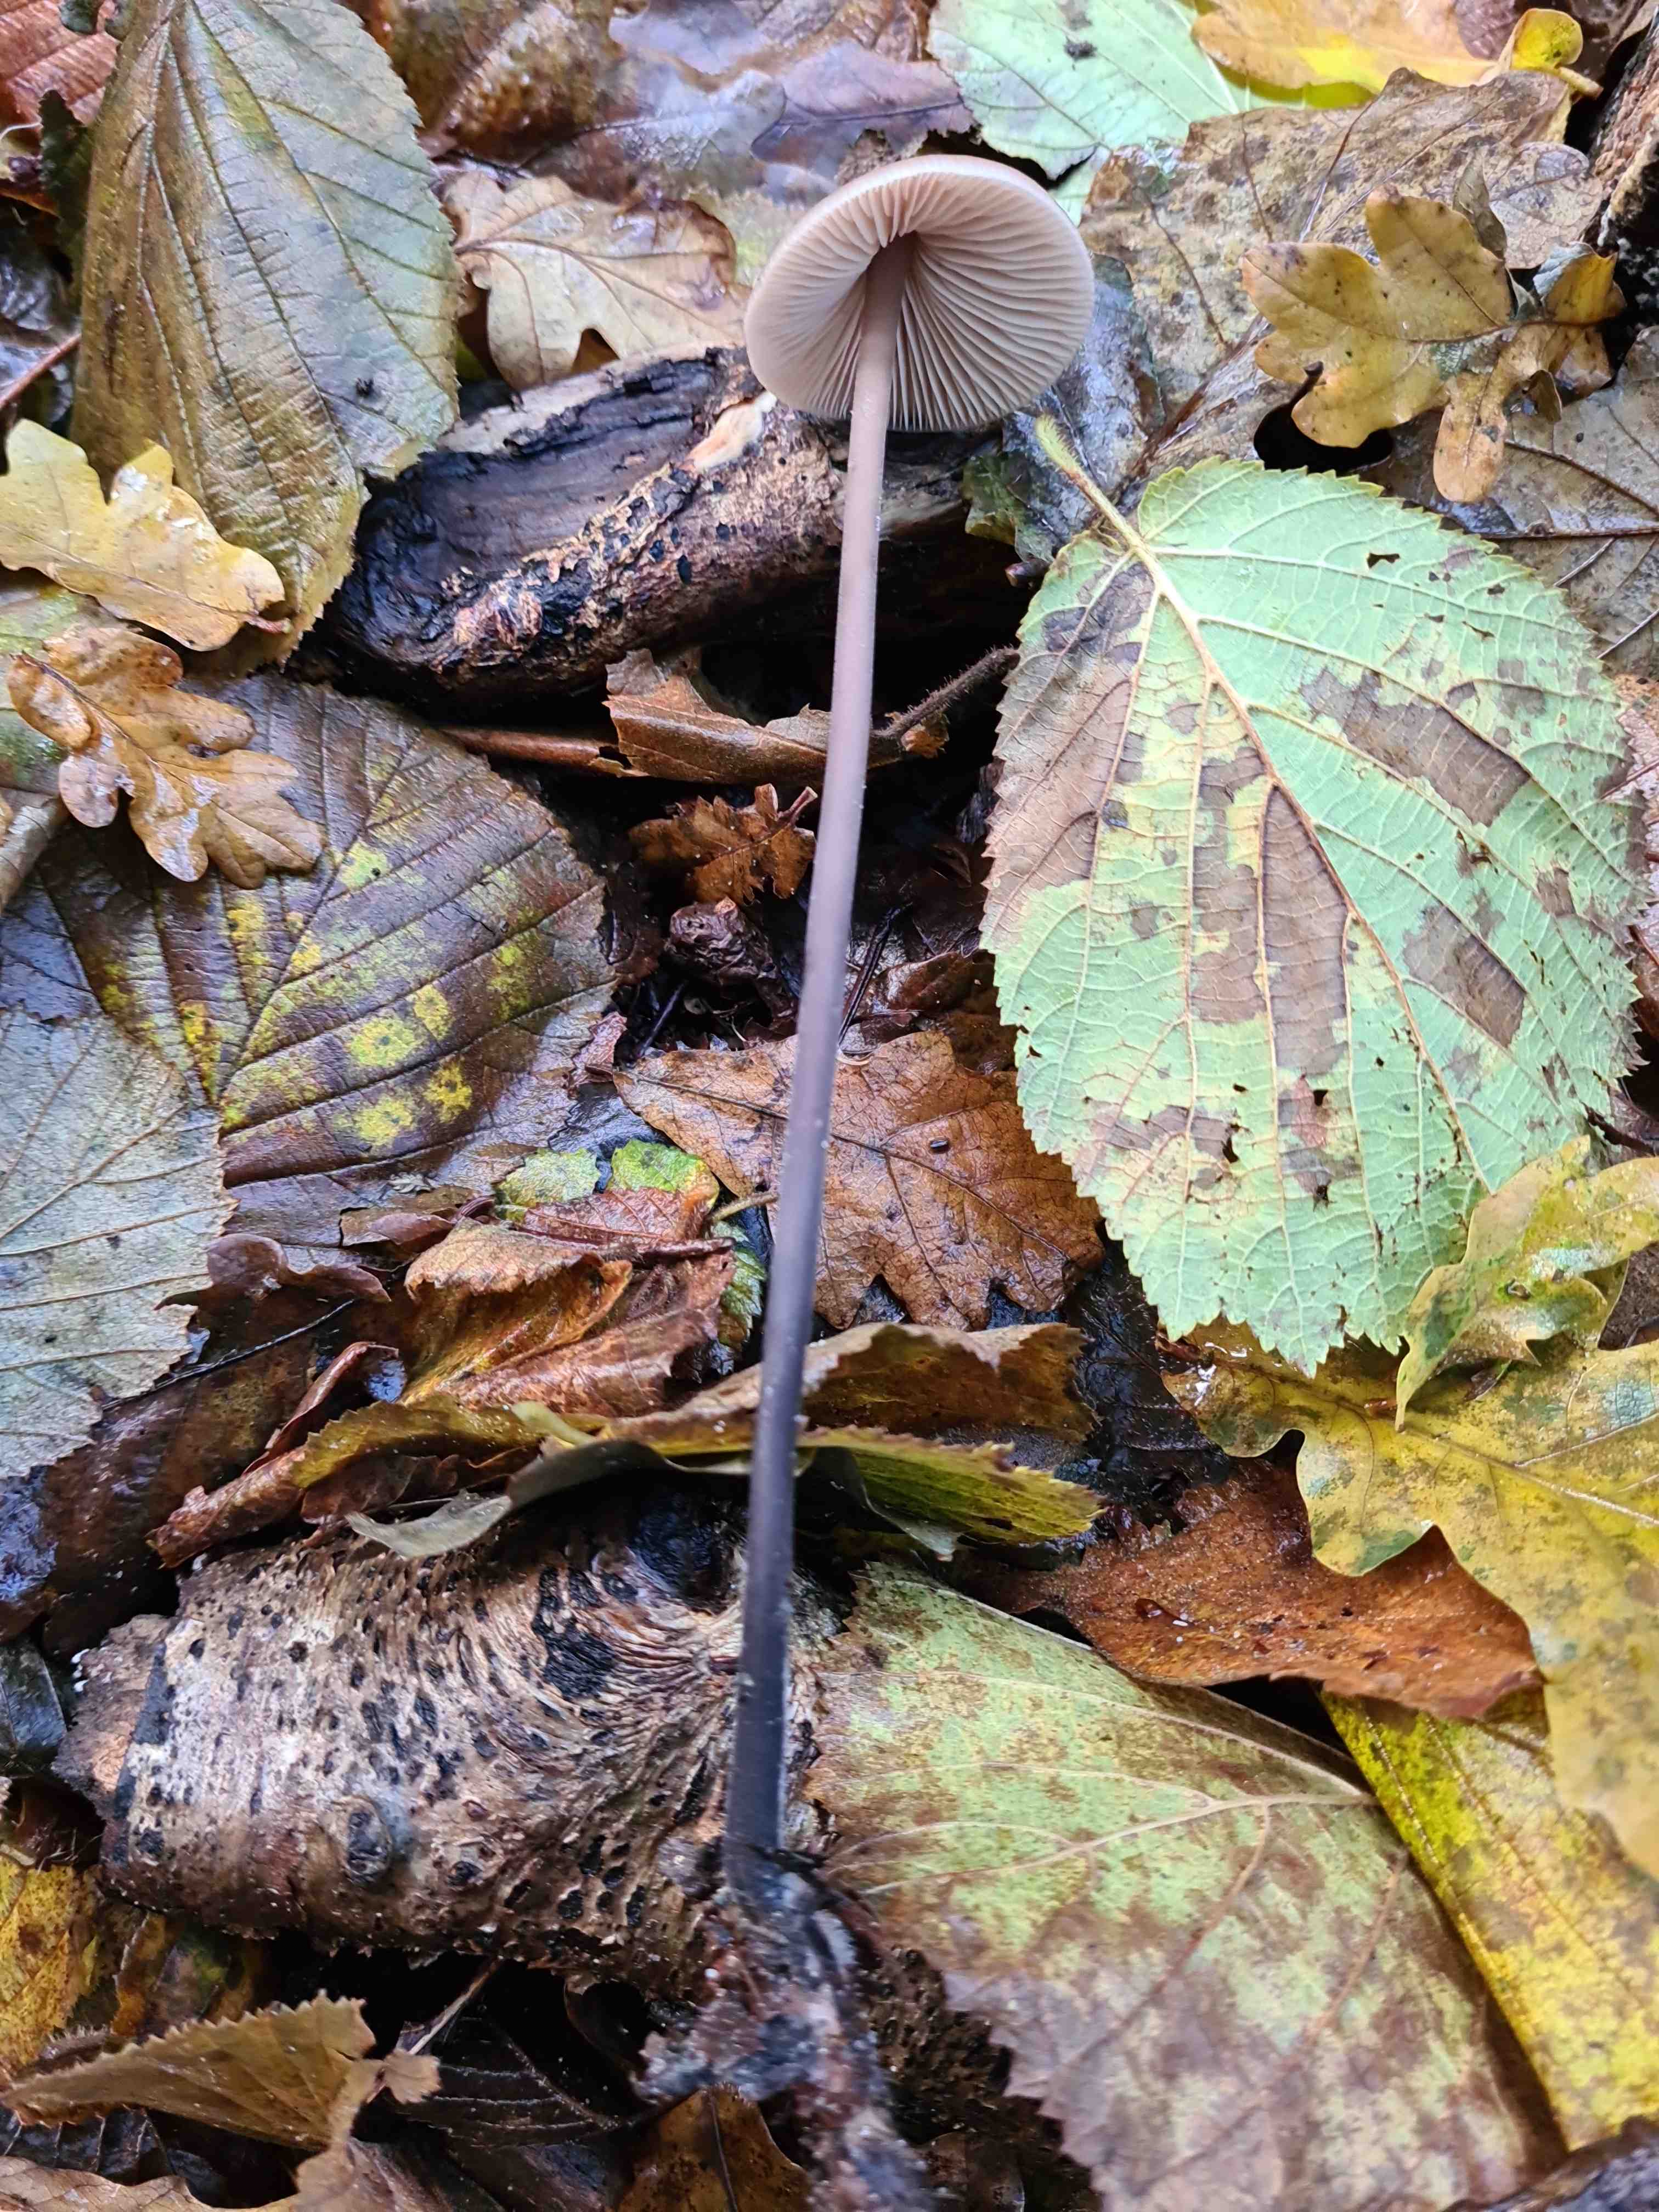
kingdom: Fungi
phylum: Basidiomycota
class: Agaricomycetes
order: Agaricales
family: Omphalotaceae
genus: Mycetinis
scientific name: Mycetinis alliaceus
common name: stor løghat
